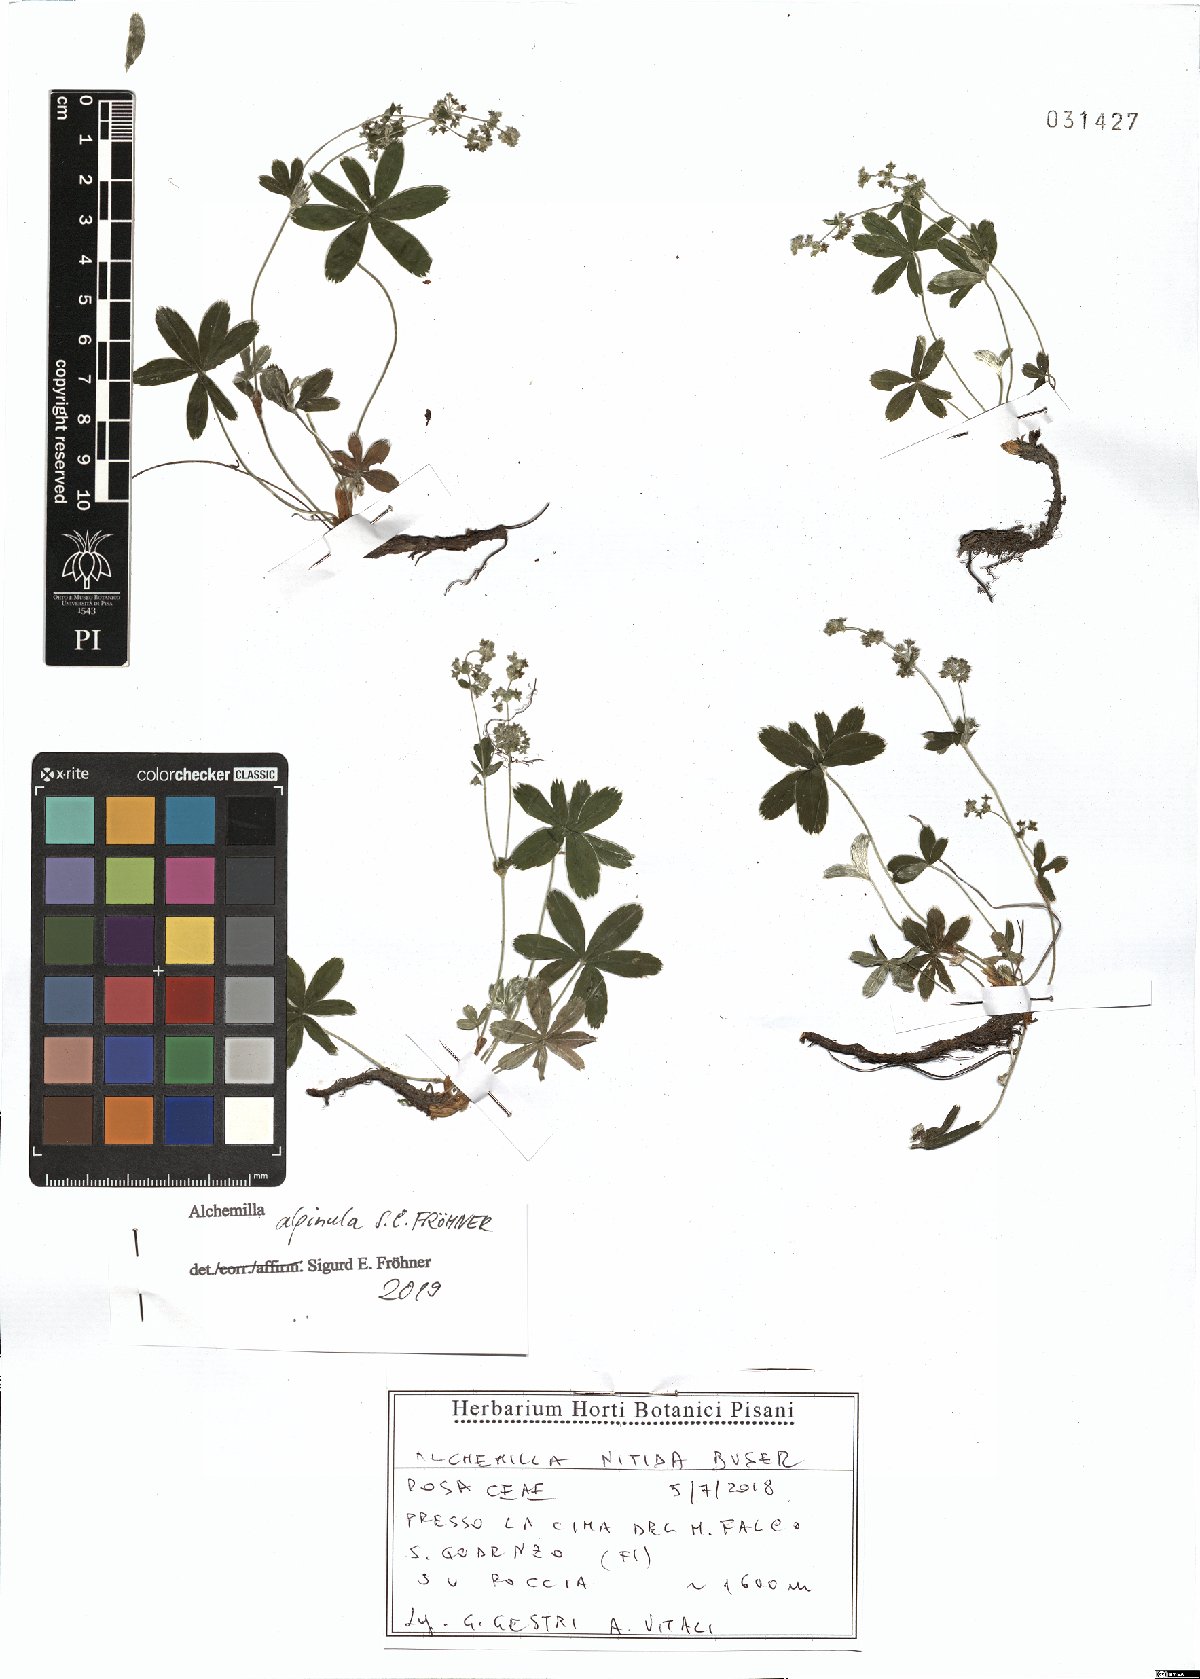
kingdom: Plantae
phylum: Tracheophyta
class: Magnoliopsida
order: Rosales
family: Rosaceae
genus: Alchemilla
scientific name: Alchemilla alpinula
